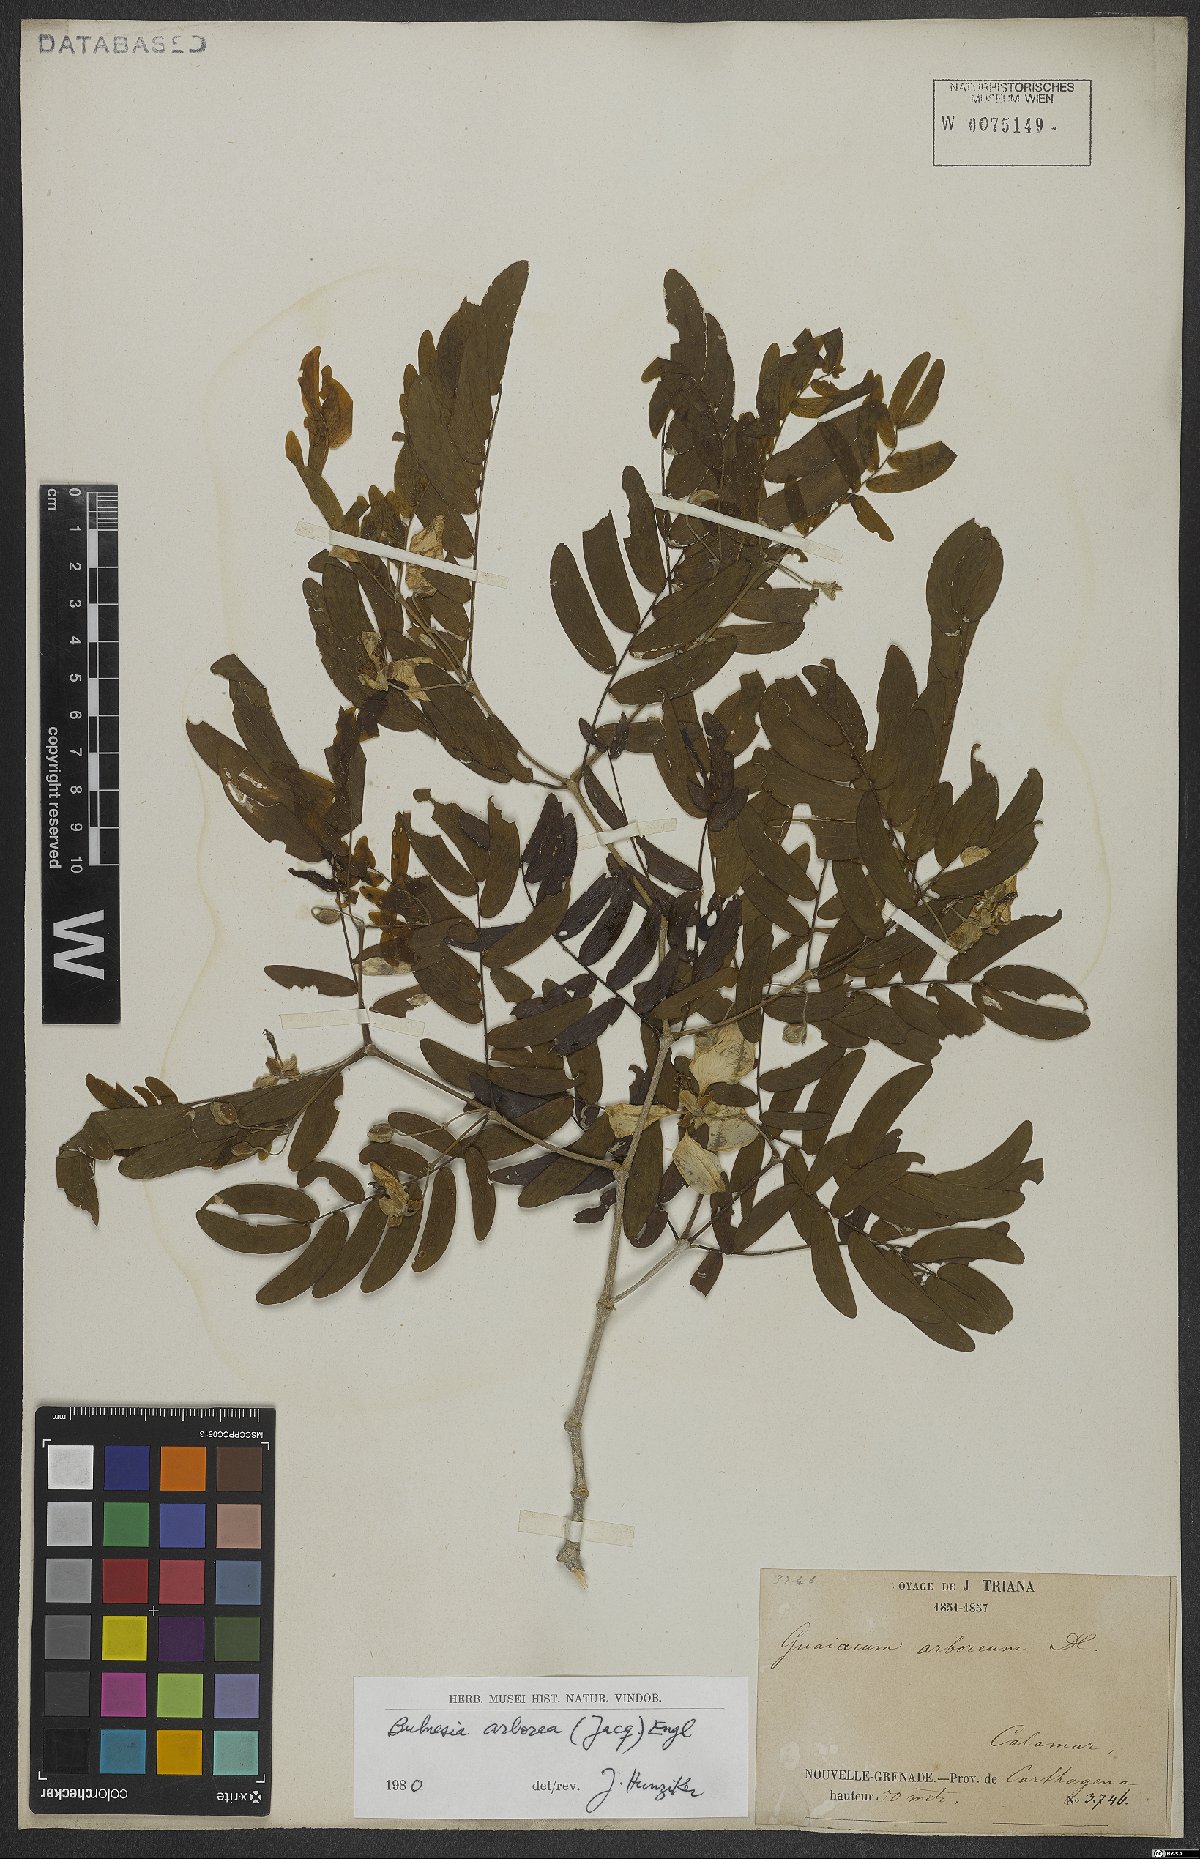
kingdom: Plantae
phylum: Tracheophyta
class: Magnoliopsida
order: Zygophyllales
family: Zygophyllaceae
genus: Gonopterodendron
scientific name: Gonopterodendron arboreum
